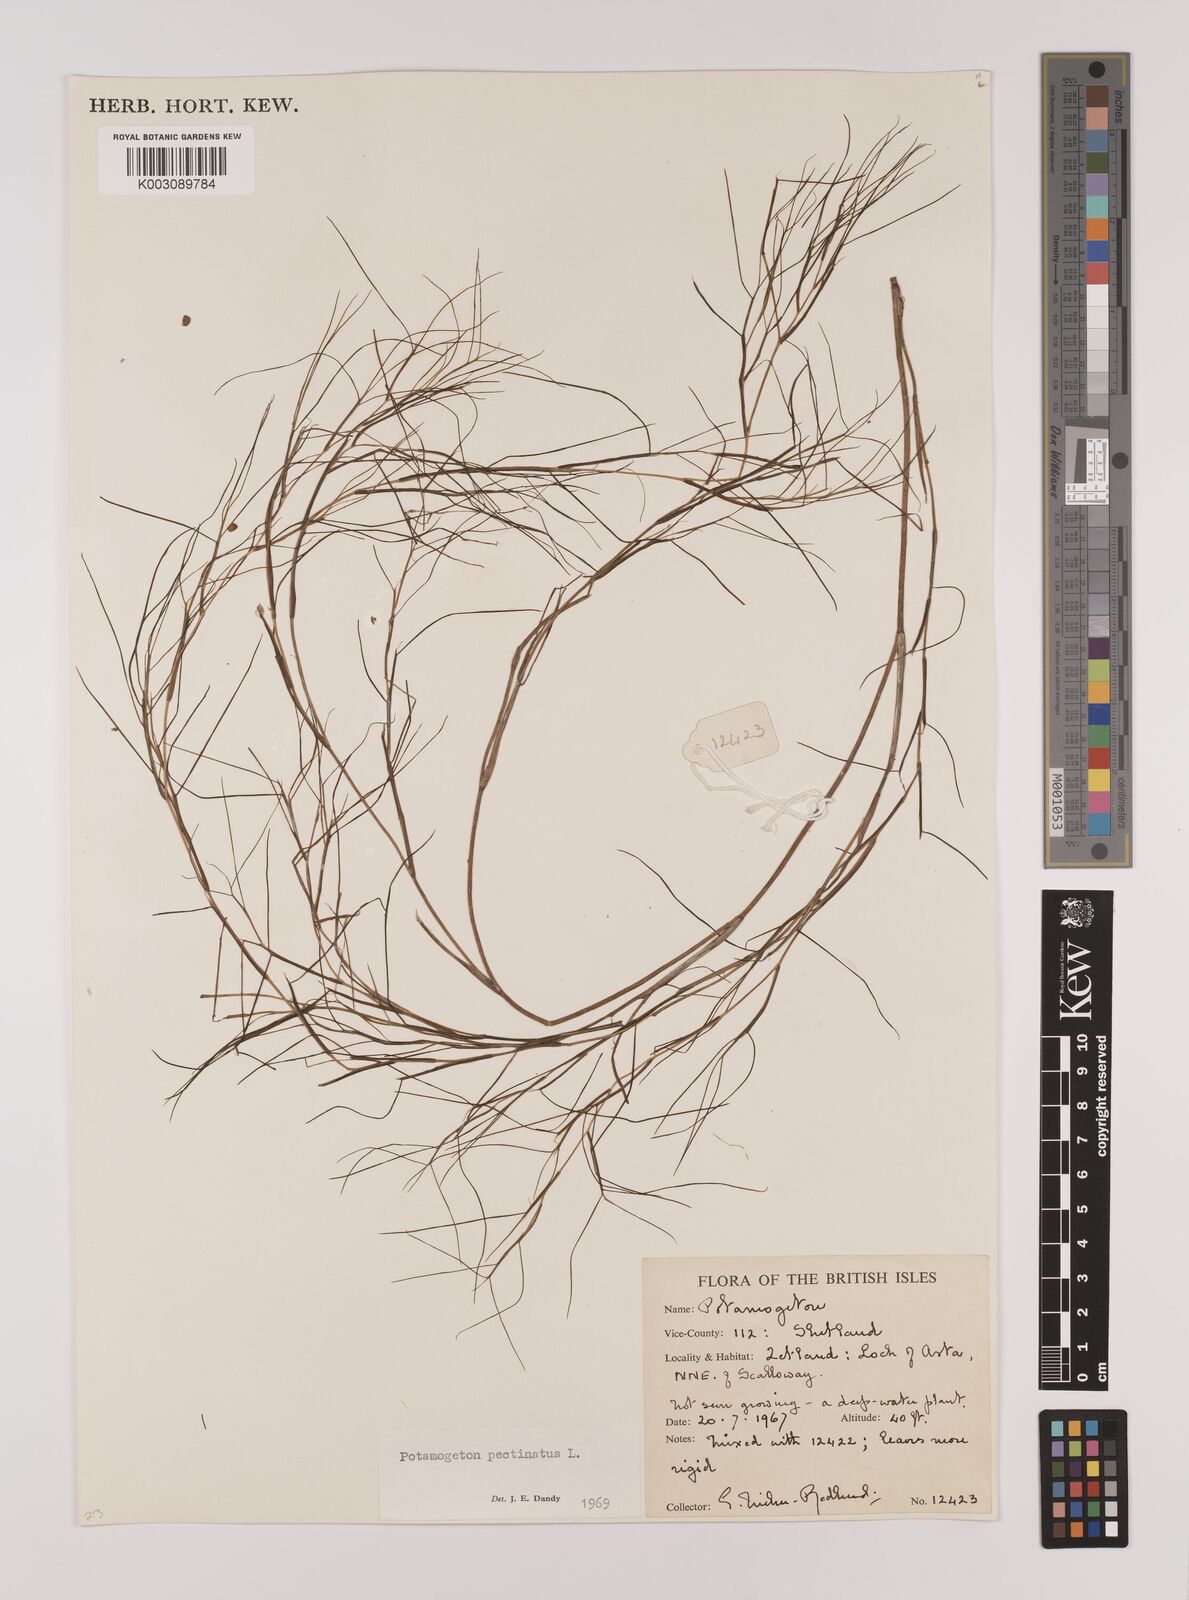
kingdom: Plantae
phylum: Tracheophyta
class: Liliopsida
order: Alismatales
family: Potamogetonaceae
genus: Stuckenia
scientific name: Stuckenia pectinata
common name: Sago pondweed
